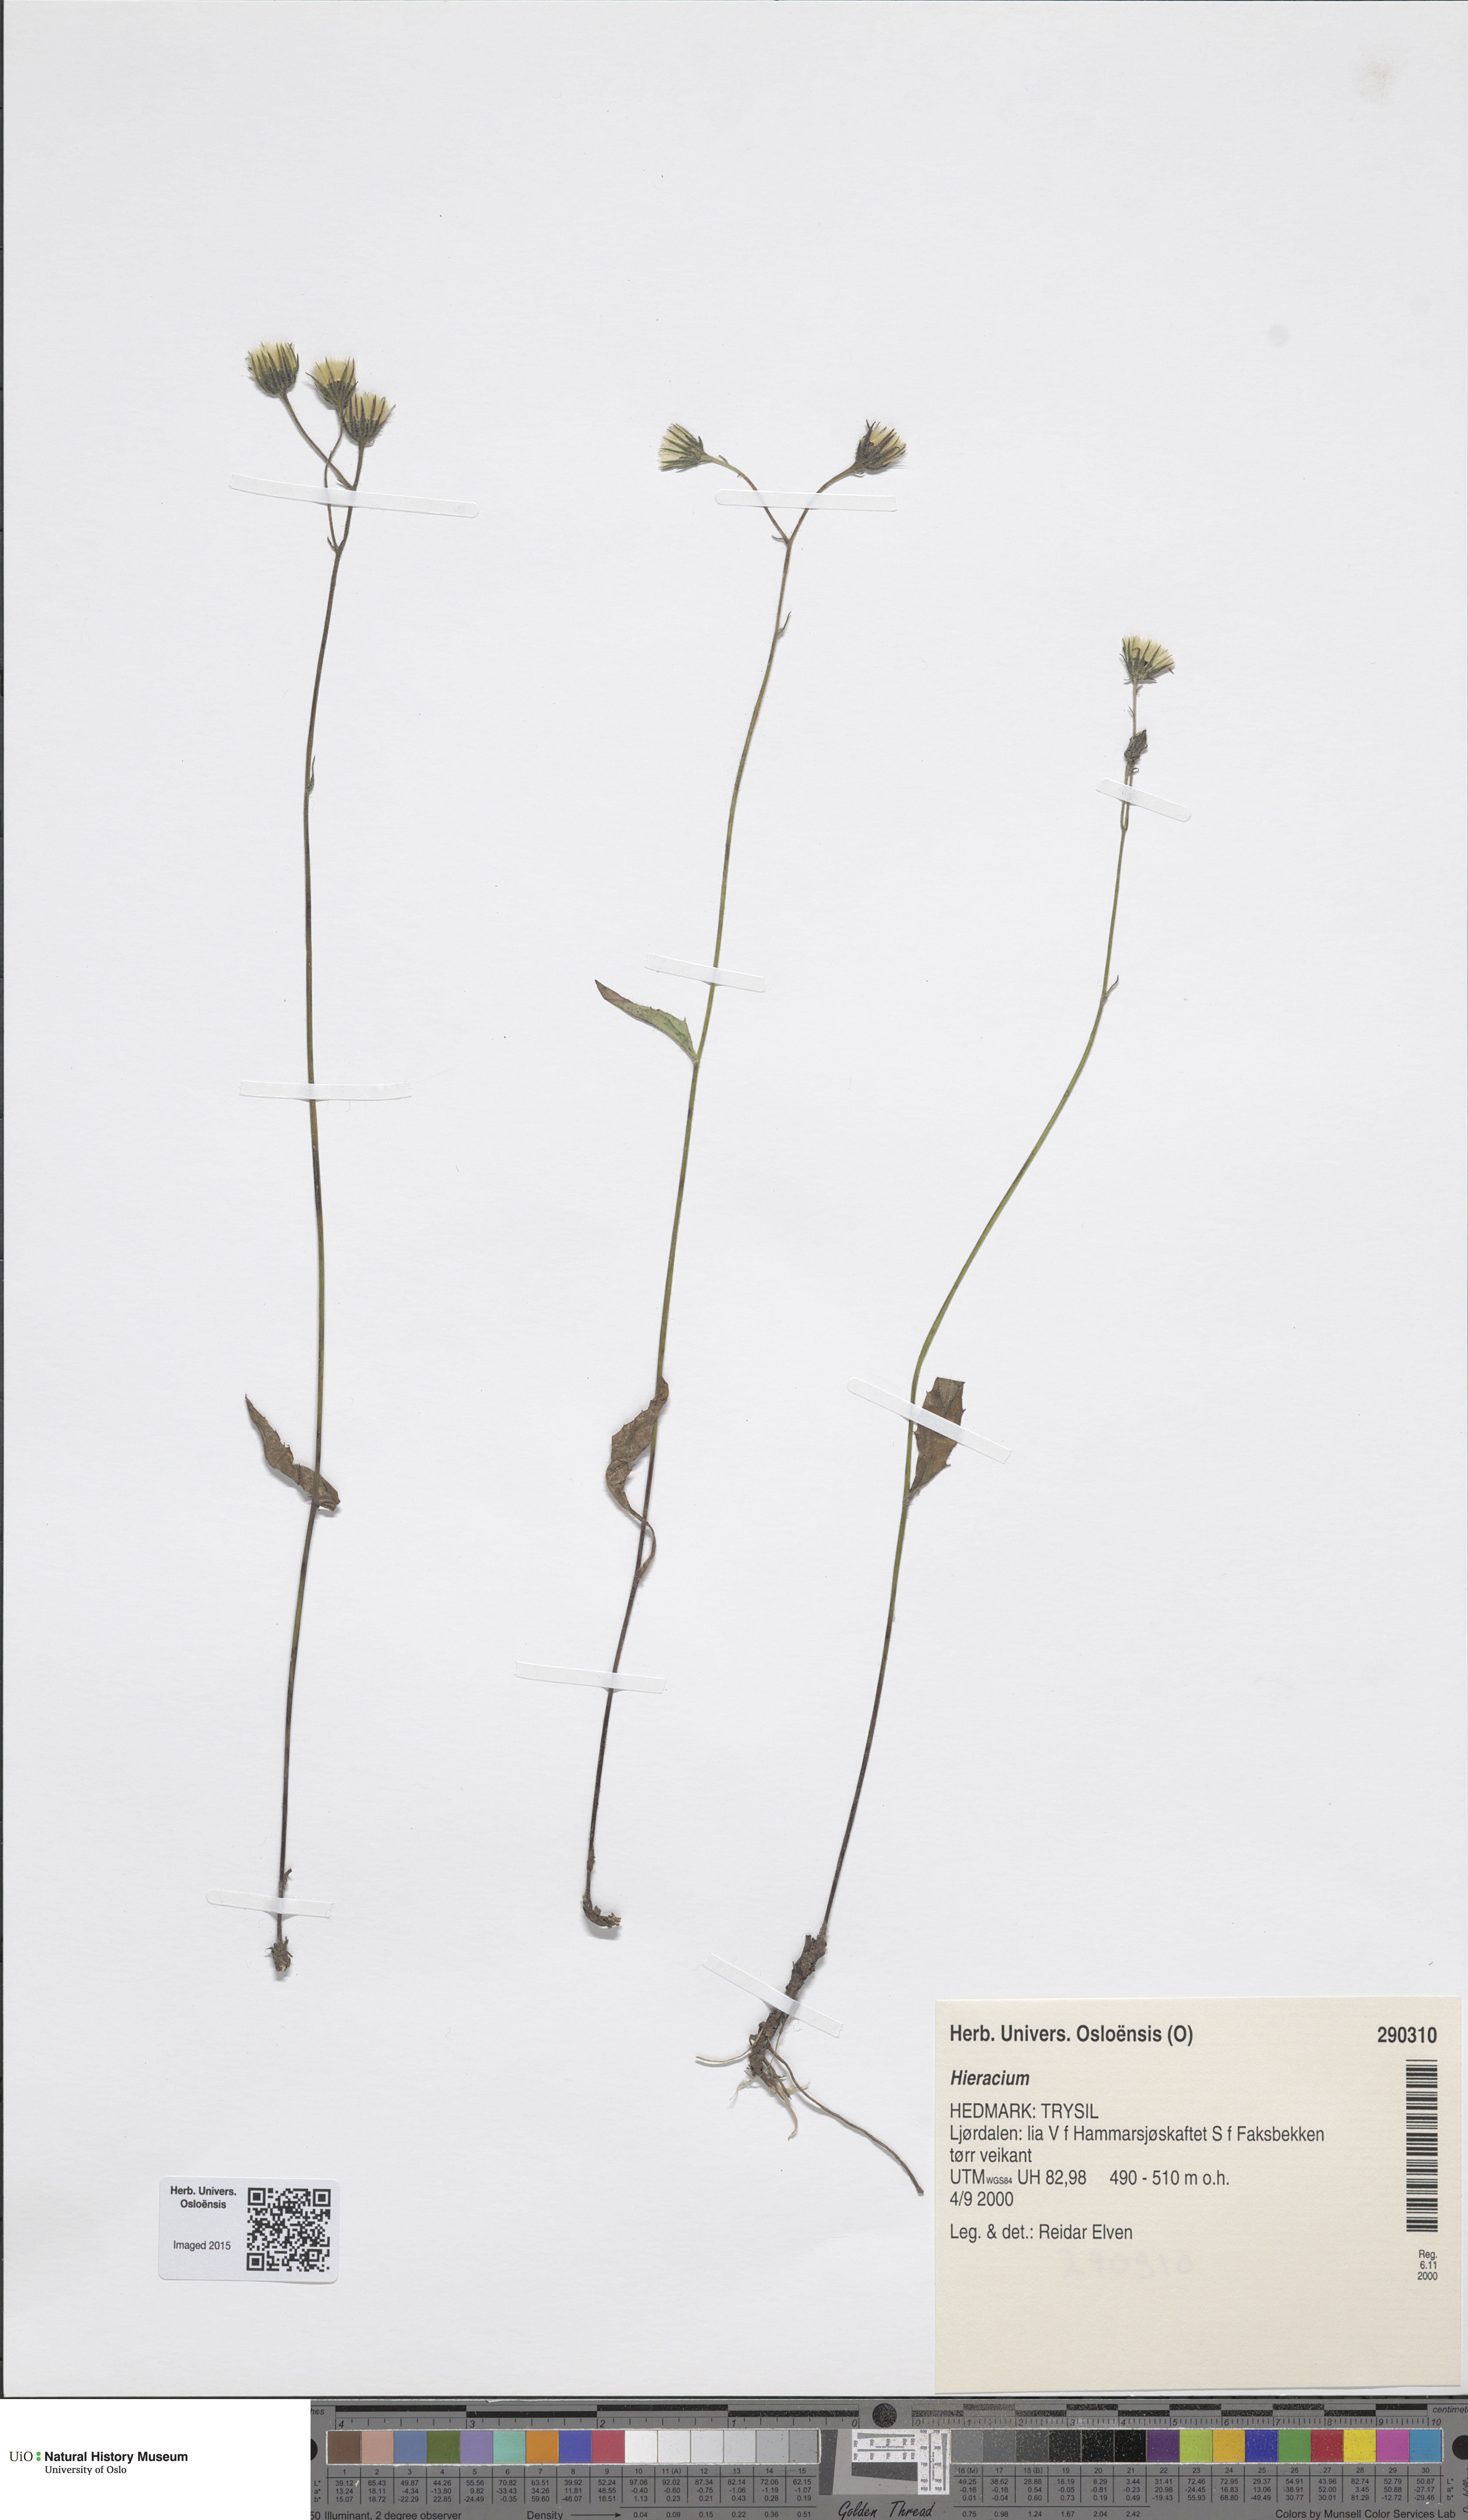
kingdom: Plantae
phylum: Tracheophyta
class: Magnoliopsida
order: Asterales
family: Asteraceae
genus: Hieracium
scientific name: Hieracium
